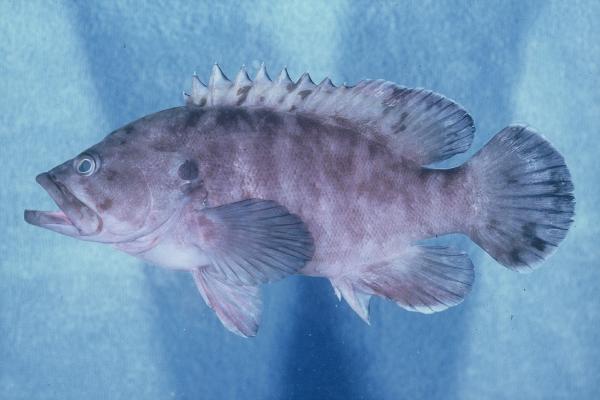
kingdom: Animalia
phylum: Chordata
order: Perciformes
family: Serranidae
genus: Cephalopholis
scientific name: Cephalopholis boenak
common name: Chocolate hind
